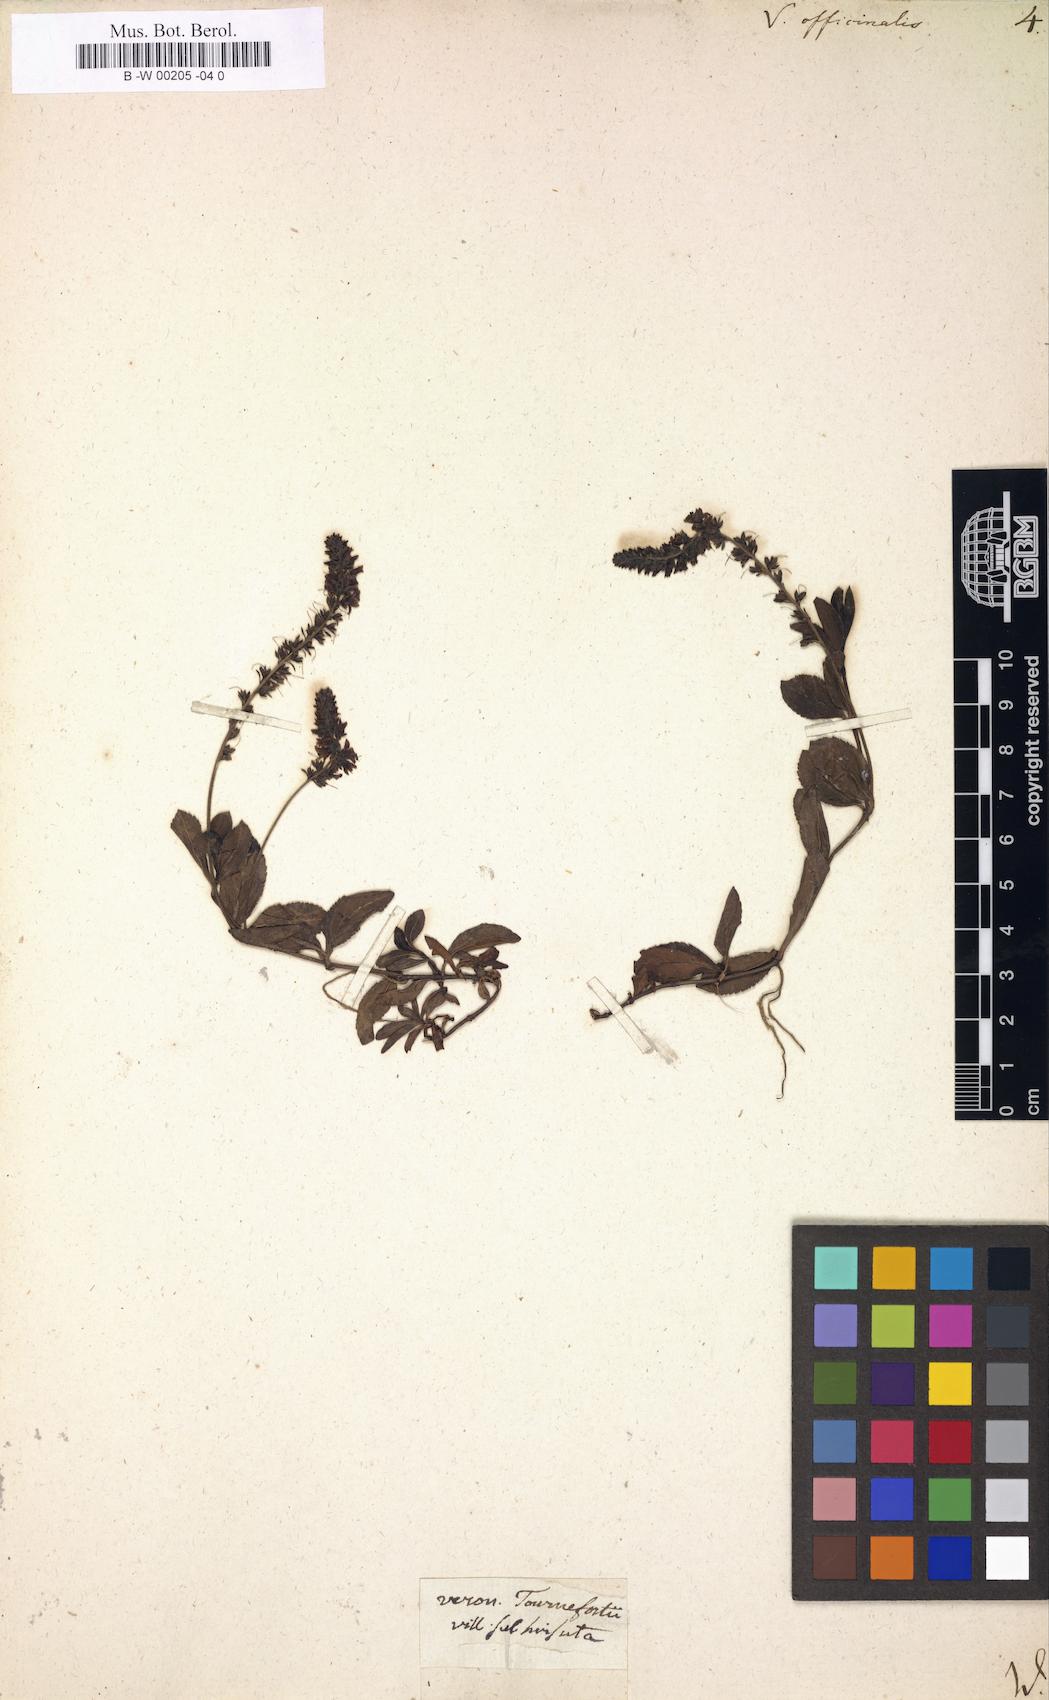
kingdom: Plantae
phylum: Tracheophyta
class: Magnoliopsida
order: Lamiales
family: Plantaginaceae
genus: Veronica
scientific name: Veronica officinalis
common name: Common speedwell
